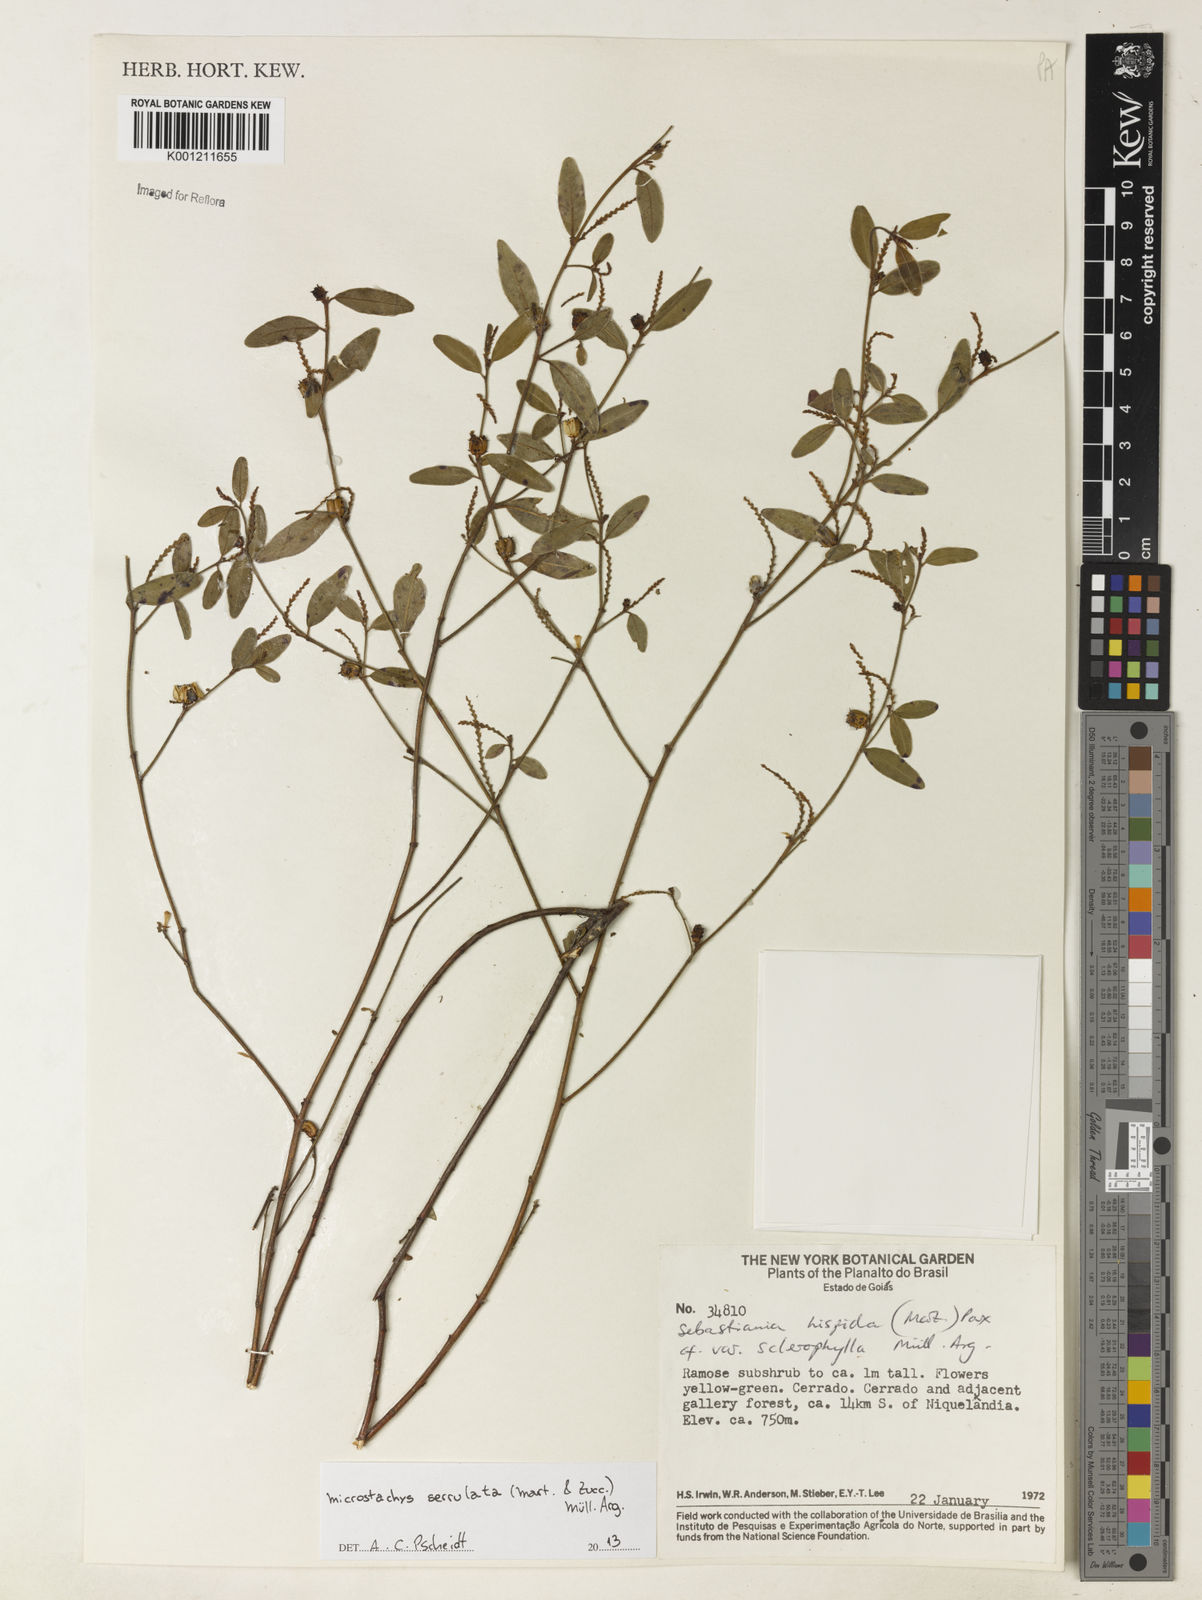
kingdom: Plantae
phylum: Tracheophyta
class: Magnoliopsida
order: Malpighiales
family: Euphorbiaceae
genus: Microstachys
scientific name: Microstachys
